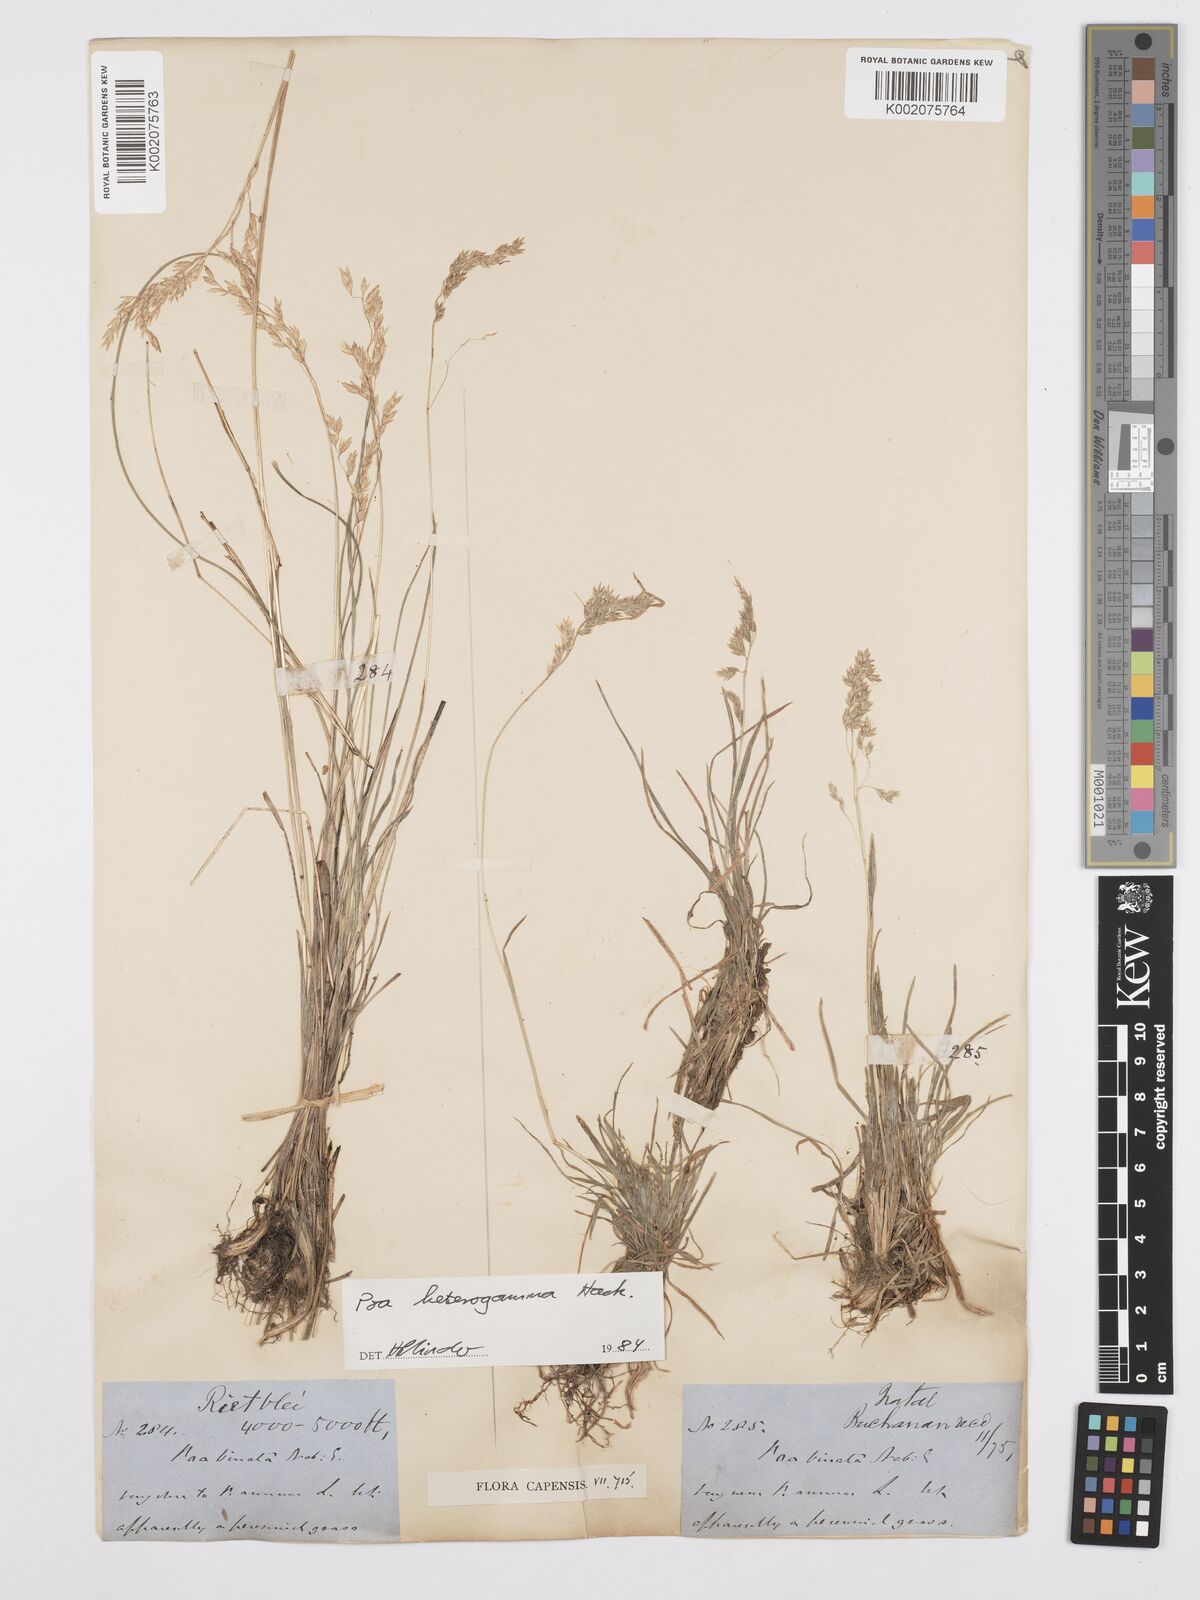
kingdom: Plantae
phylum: Tracheophyta
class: Liliopsida
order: Poales
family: Poaceae
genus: Poa
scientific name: Poa binata
